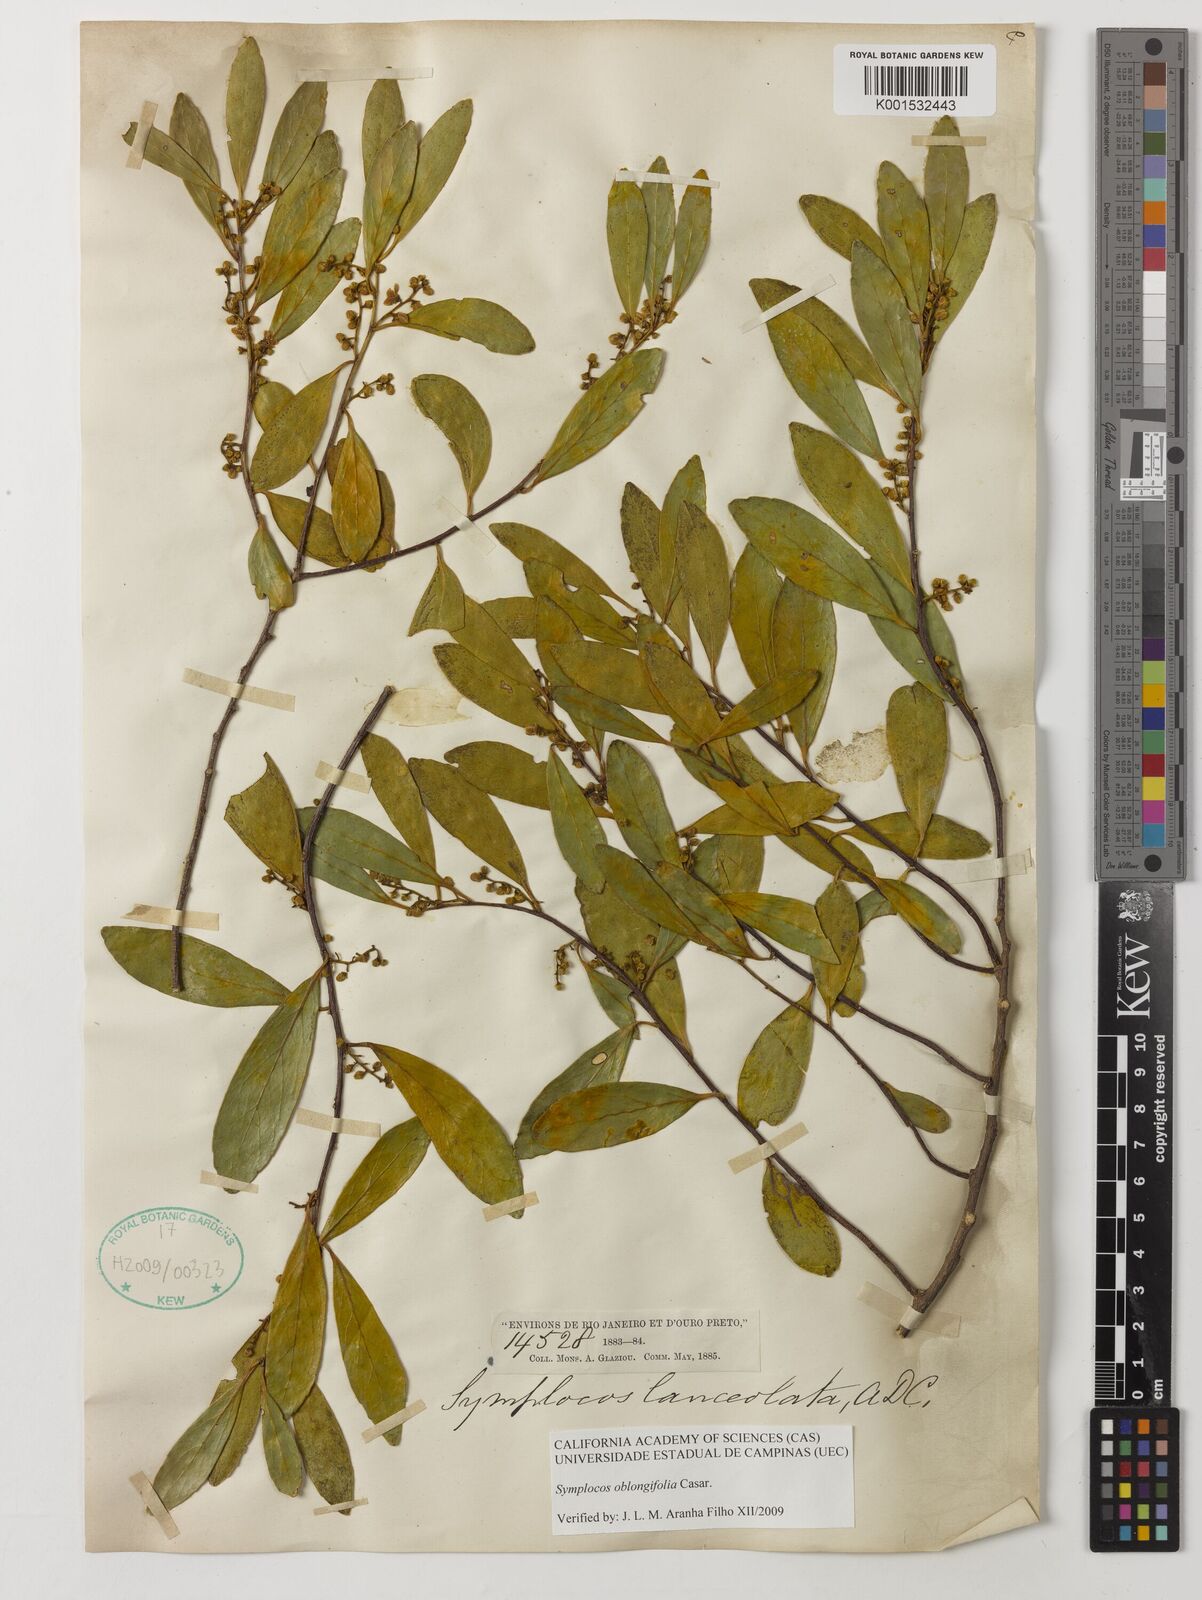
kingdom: Plantae
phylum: Tracheophyta
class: Magnoliopsida
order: Ericales
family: Symplocaceae
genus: Symplocos
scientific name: Symplocos oblongifolia
